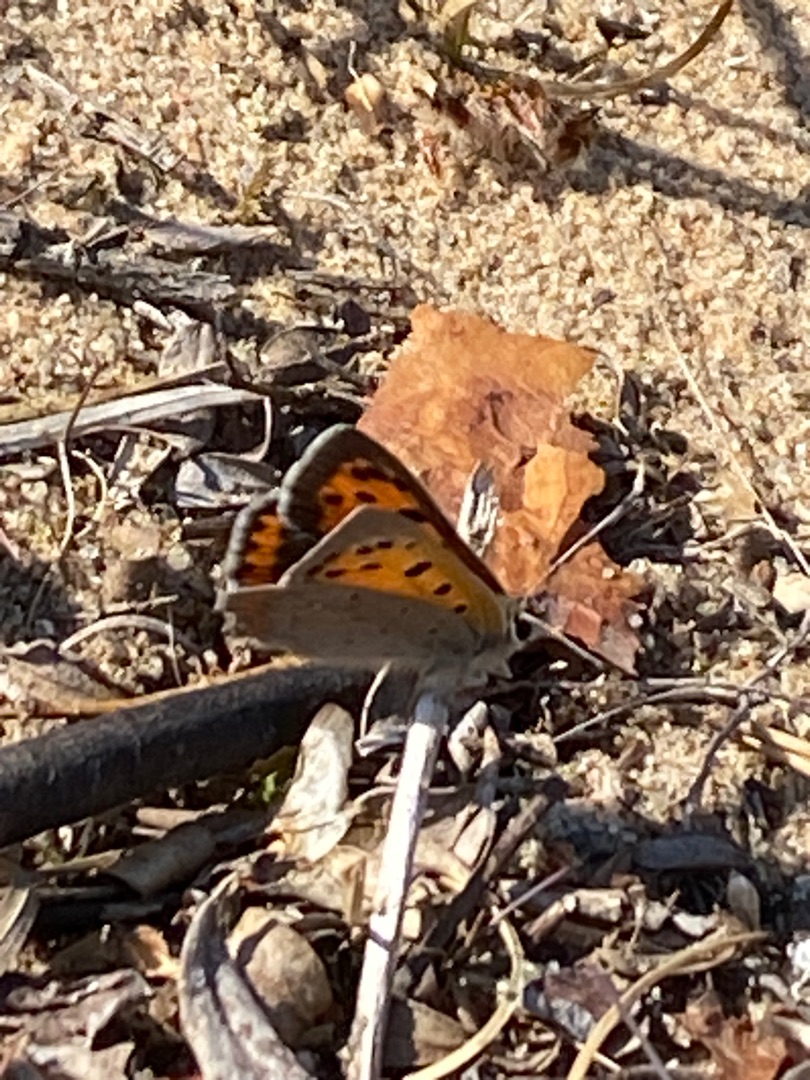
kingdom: Animalia
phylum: Arthropoda
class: Insecta
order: Lepidoptera
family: Lycaenidae
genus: Lycaena
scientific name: Lycaena phlaeas
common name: Lille ildfugl
